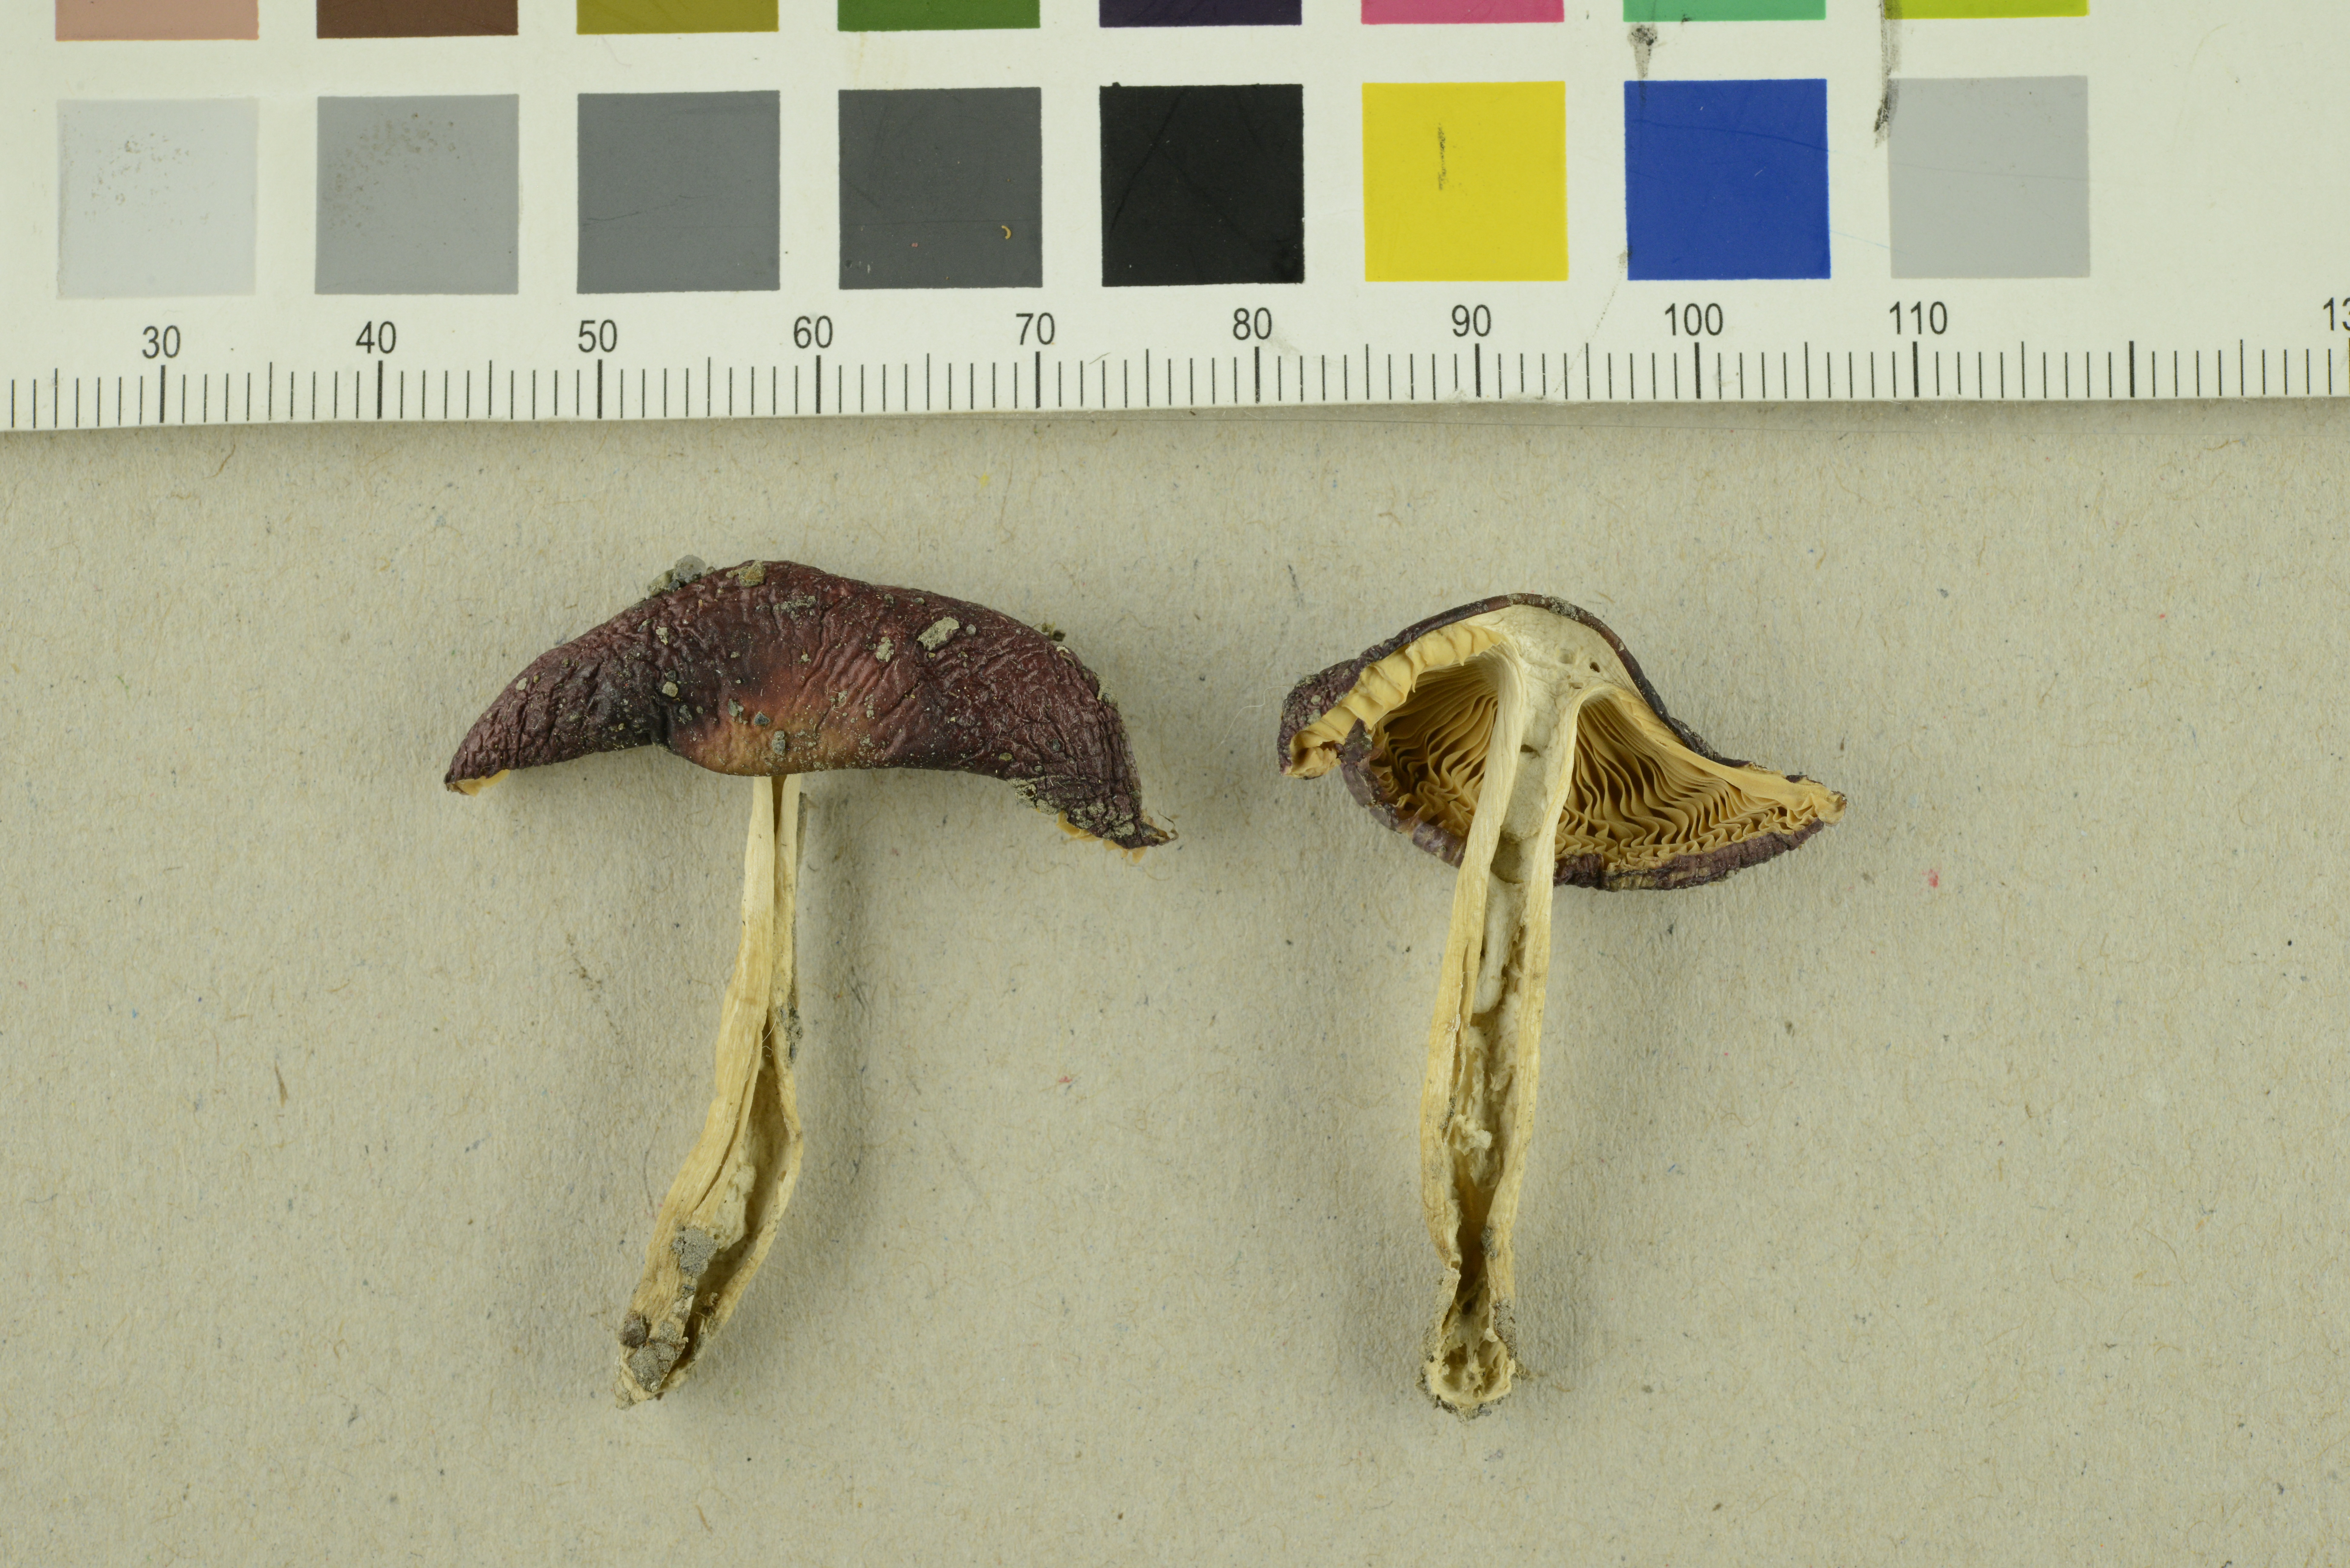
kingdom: Fungi
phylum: Basidiomycota
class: Agaricomycetes
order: Russulales
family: Russulaceae
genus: Russula
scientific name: Russula cessans
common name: Tardy brittlegill
